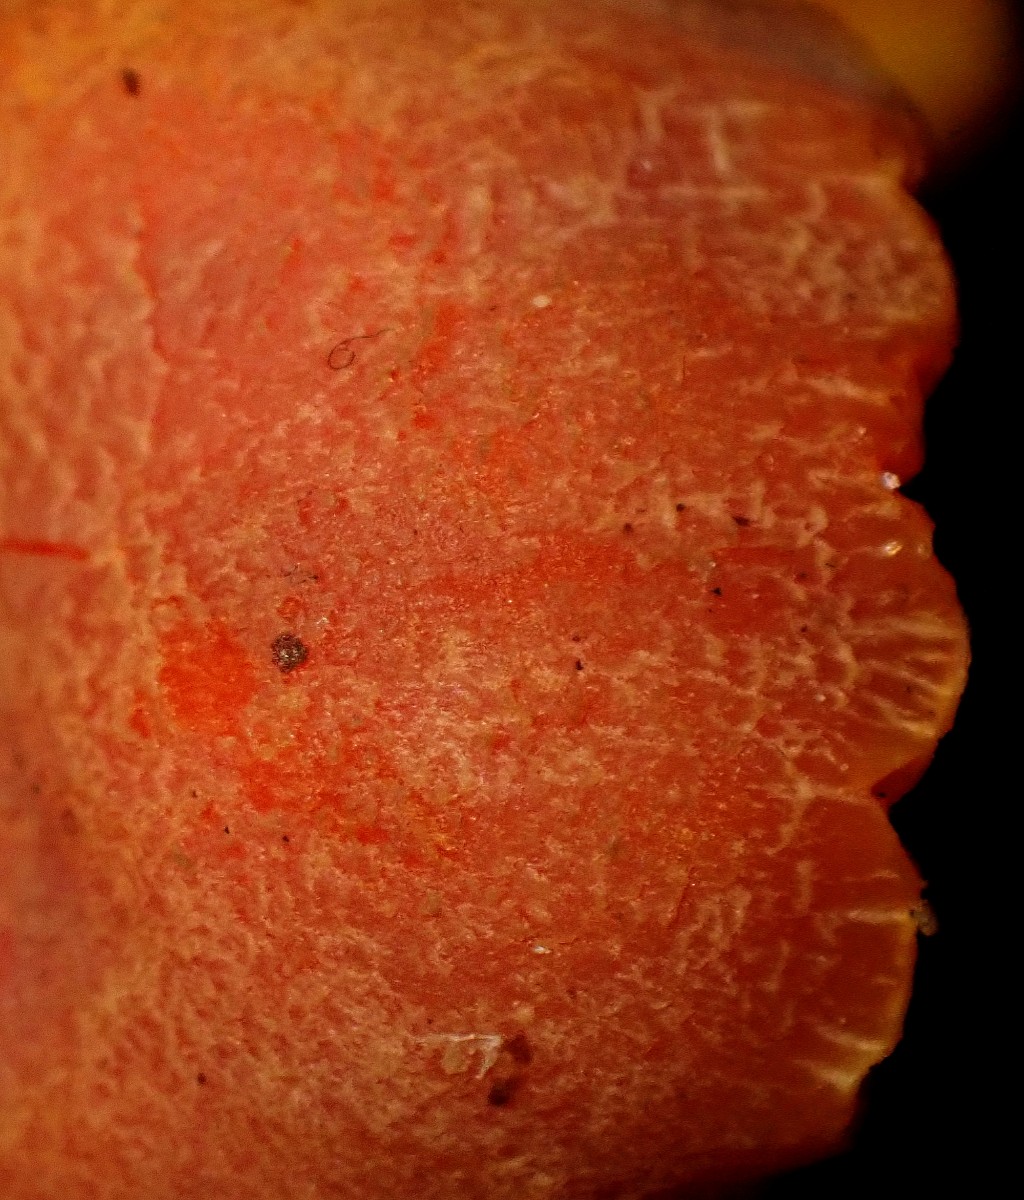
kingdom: Fungi
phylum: Basidiomycota
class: Agaricomycetes
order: Agaricales
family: Hygrophoraceae
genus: Hygrocybe
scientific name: Hygrocybe miniata
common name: mønje-vokshat
